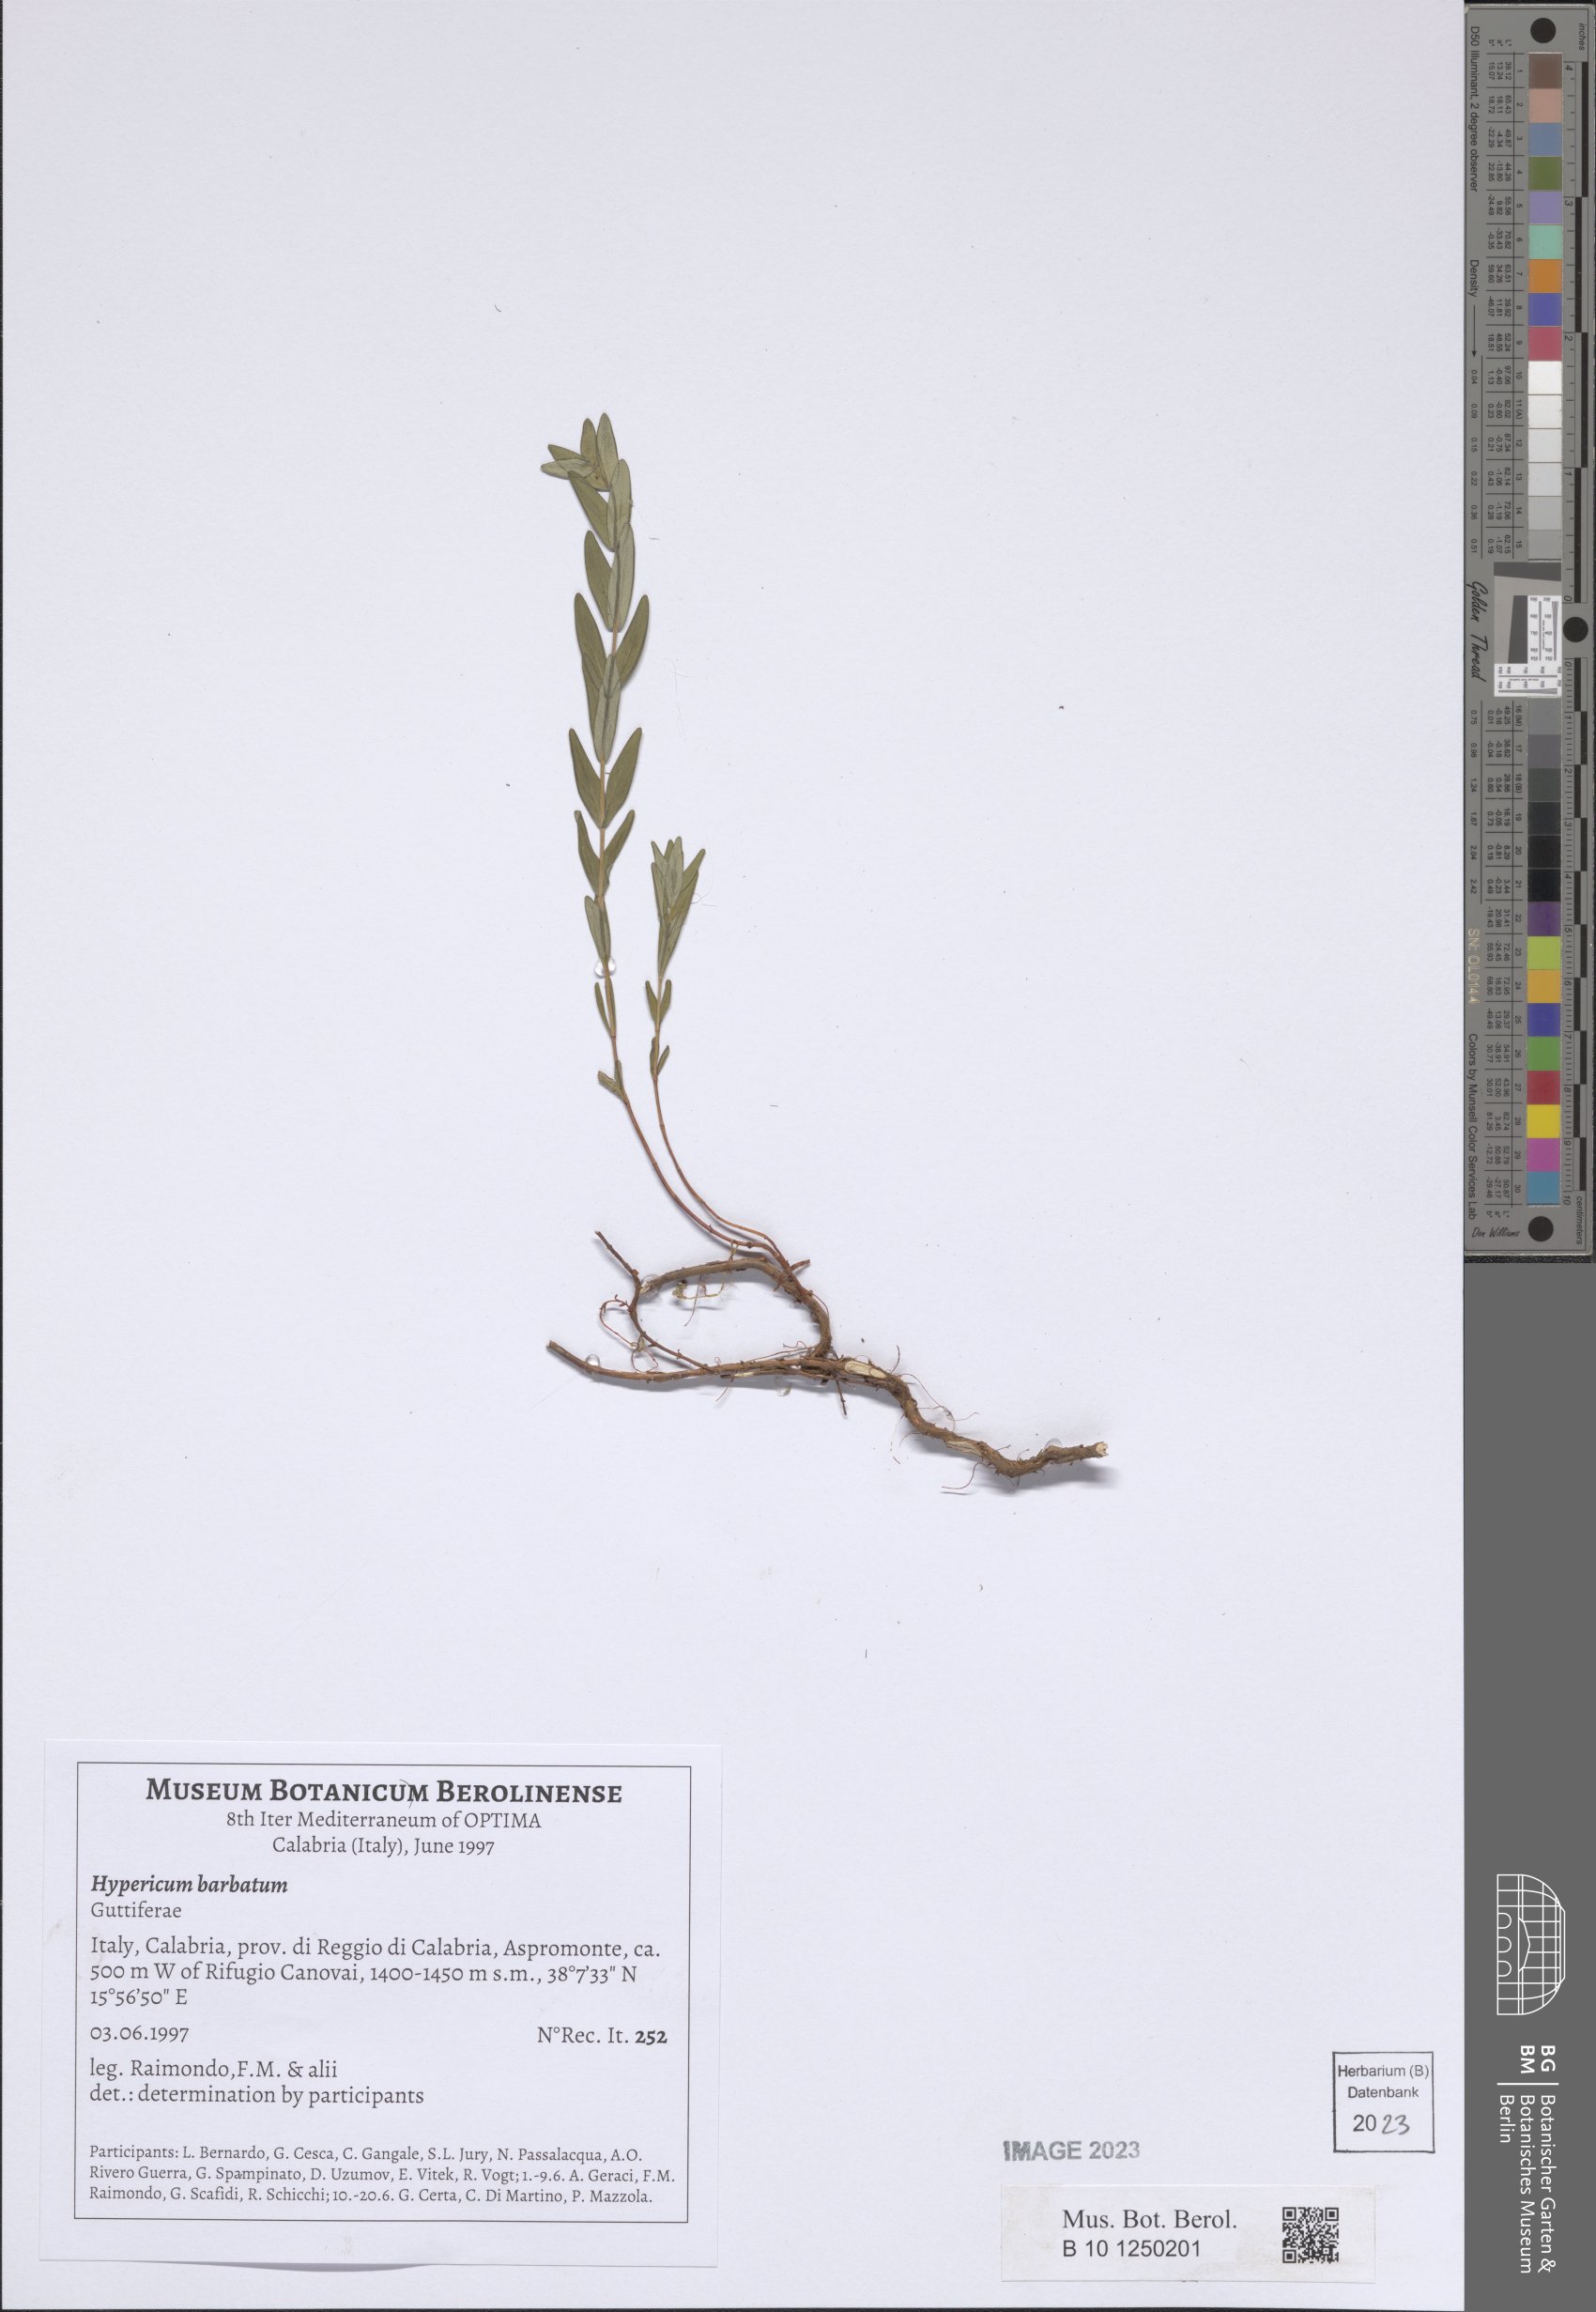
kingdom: Plantae
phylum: Tracheophyta
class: Magnoliopsida
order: Malpighiales
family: Hypericaceae
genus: Hypericum
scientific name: Hypericum barbatum
